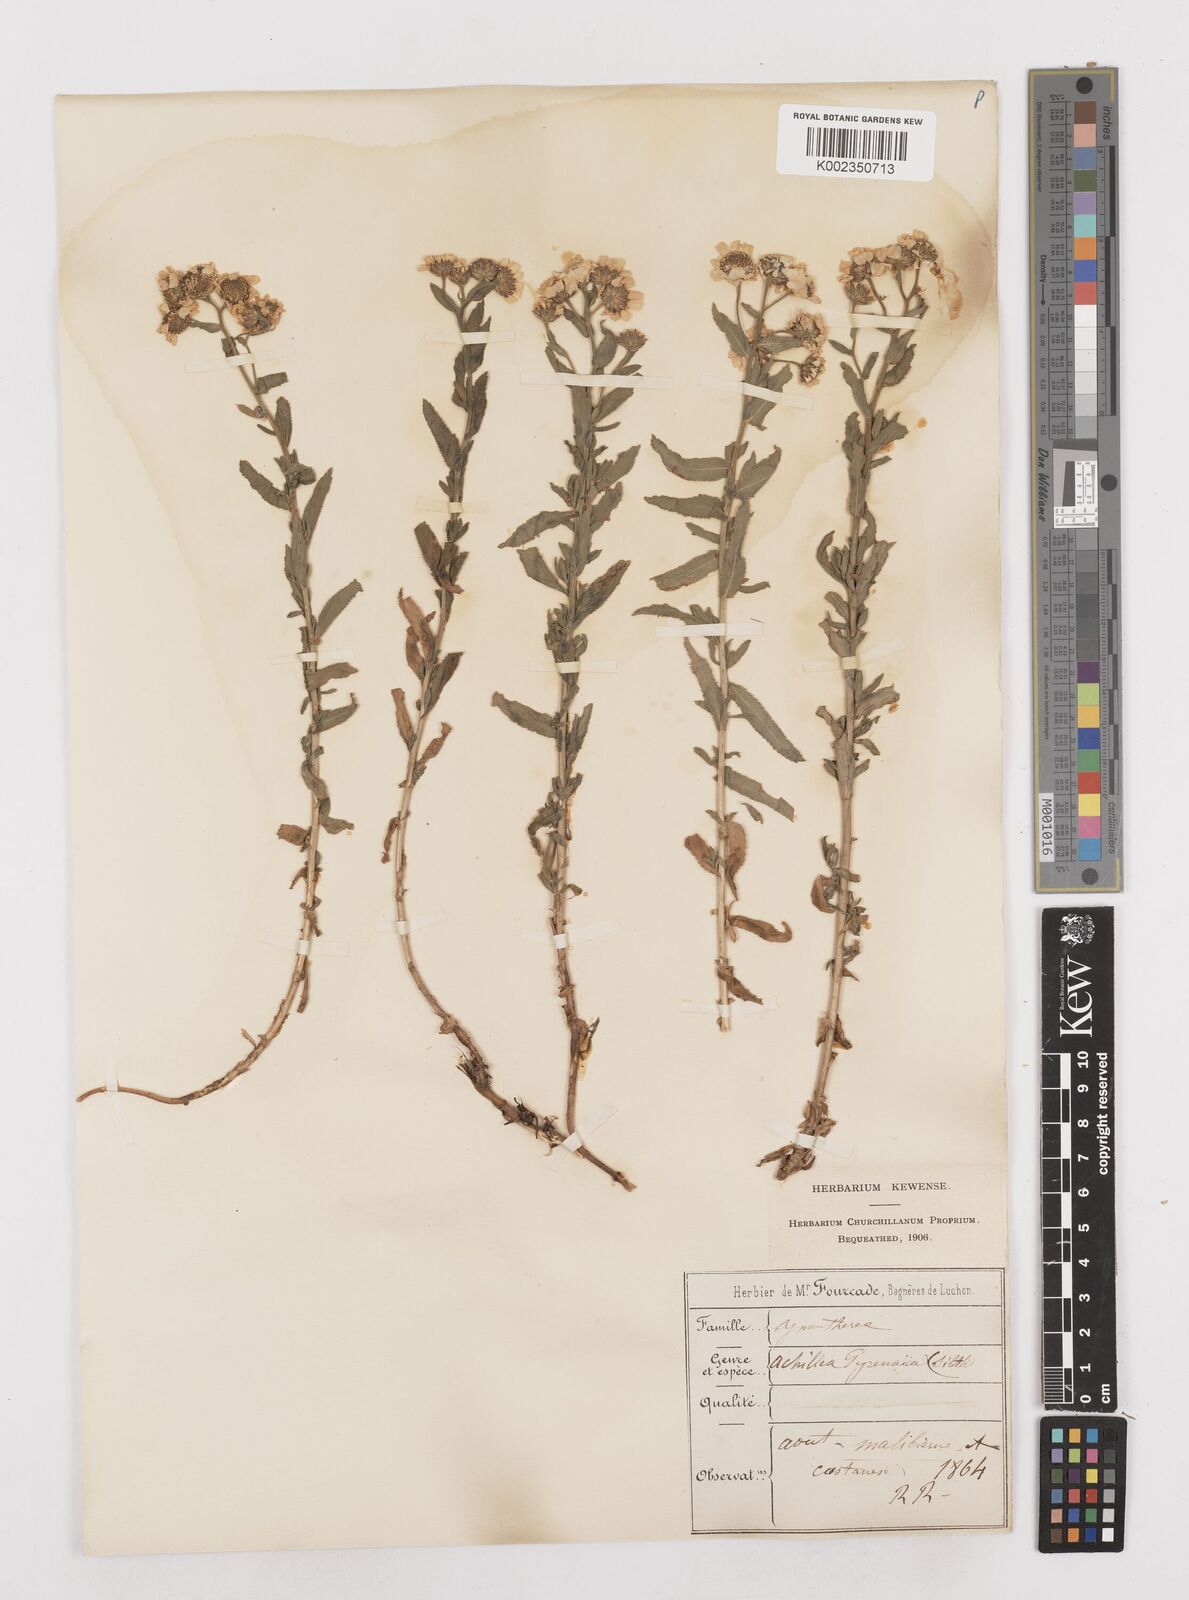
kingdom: Plantae
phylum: Tracheophyta
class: Magnoliopsida
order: Asterales
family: Asteraceae
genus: Achillea
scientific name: Achillea pyrenaica
